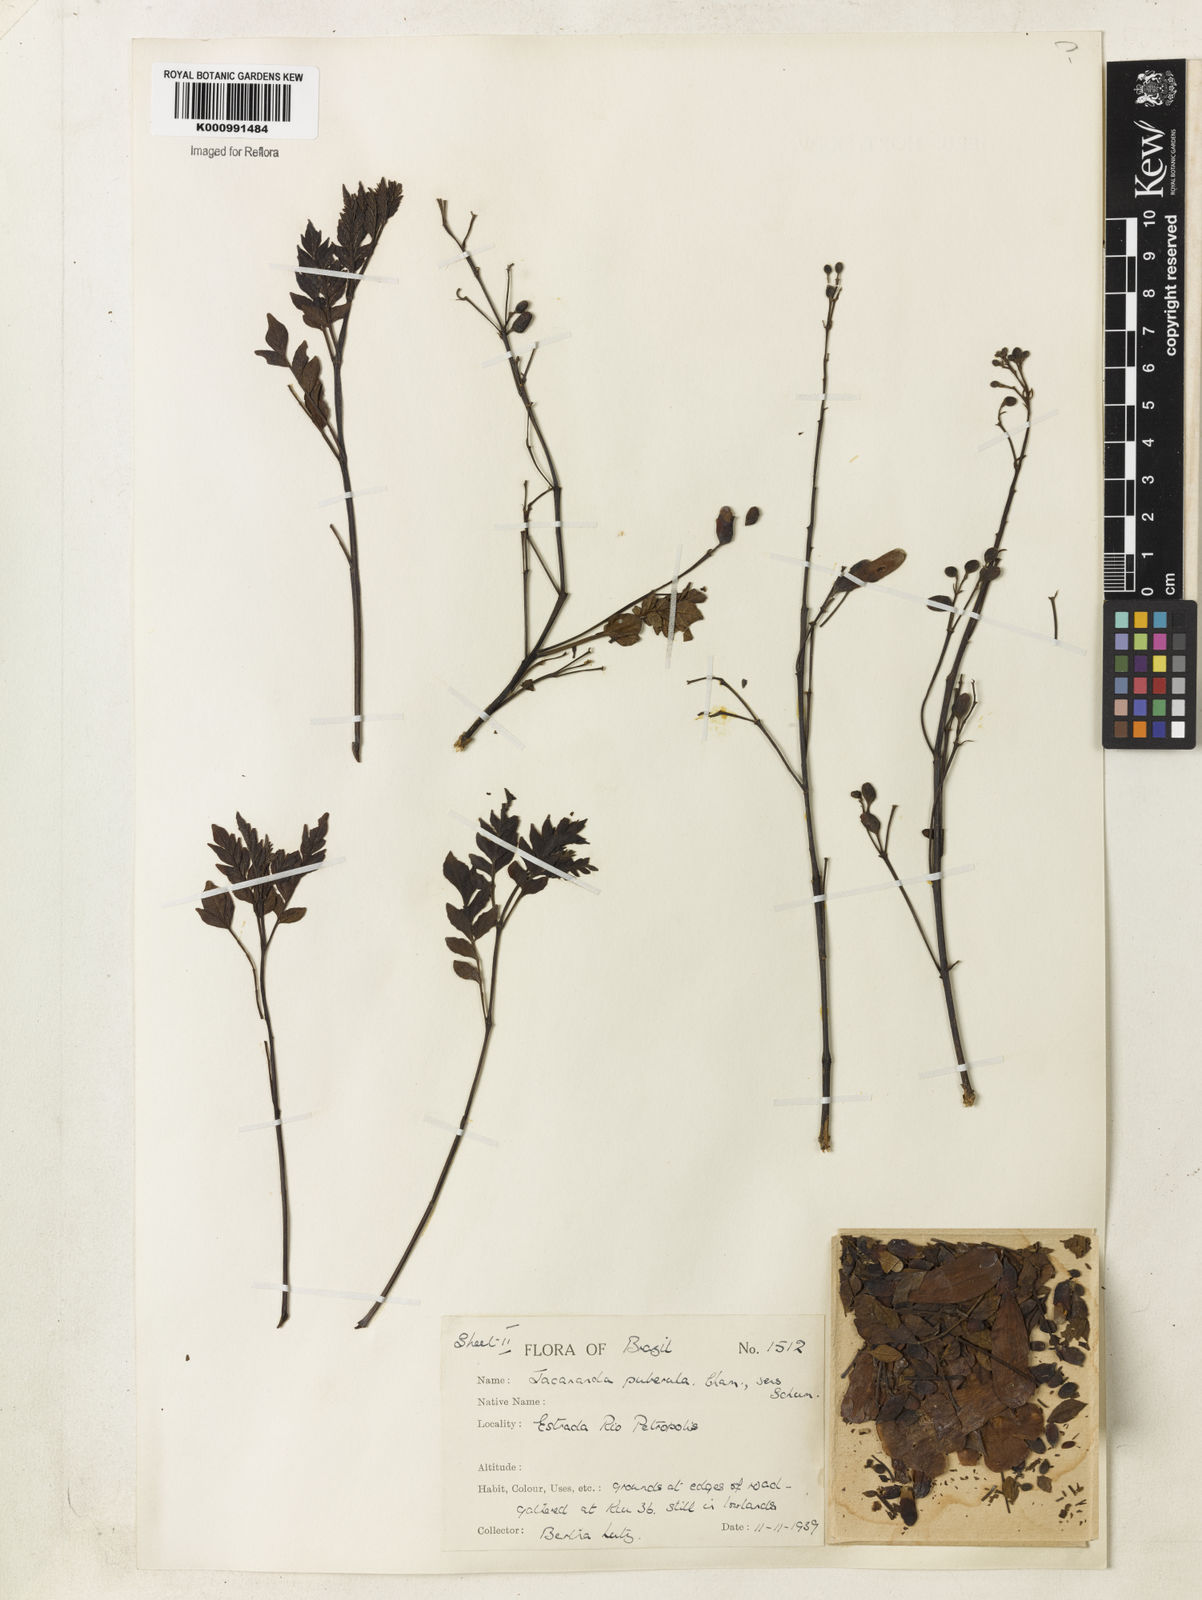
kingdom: Plantae
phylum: Tracheophyta
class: Magnoliopsida
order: Lamiales
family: Bignoniaceae
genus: Jacaranda
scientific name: Jacaranda puberula
